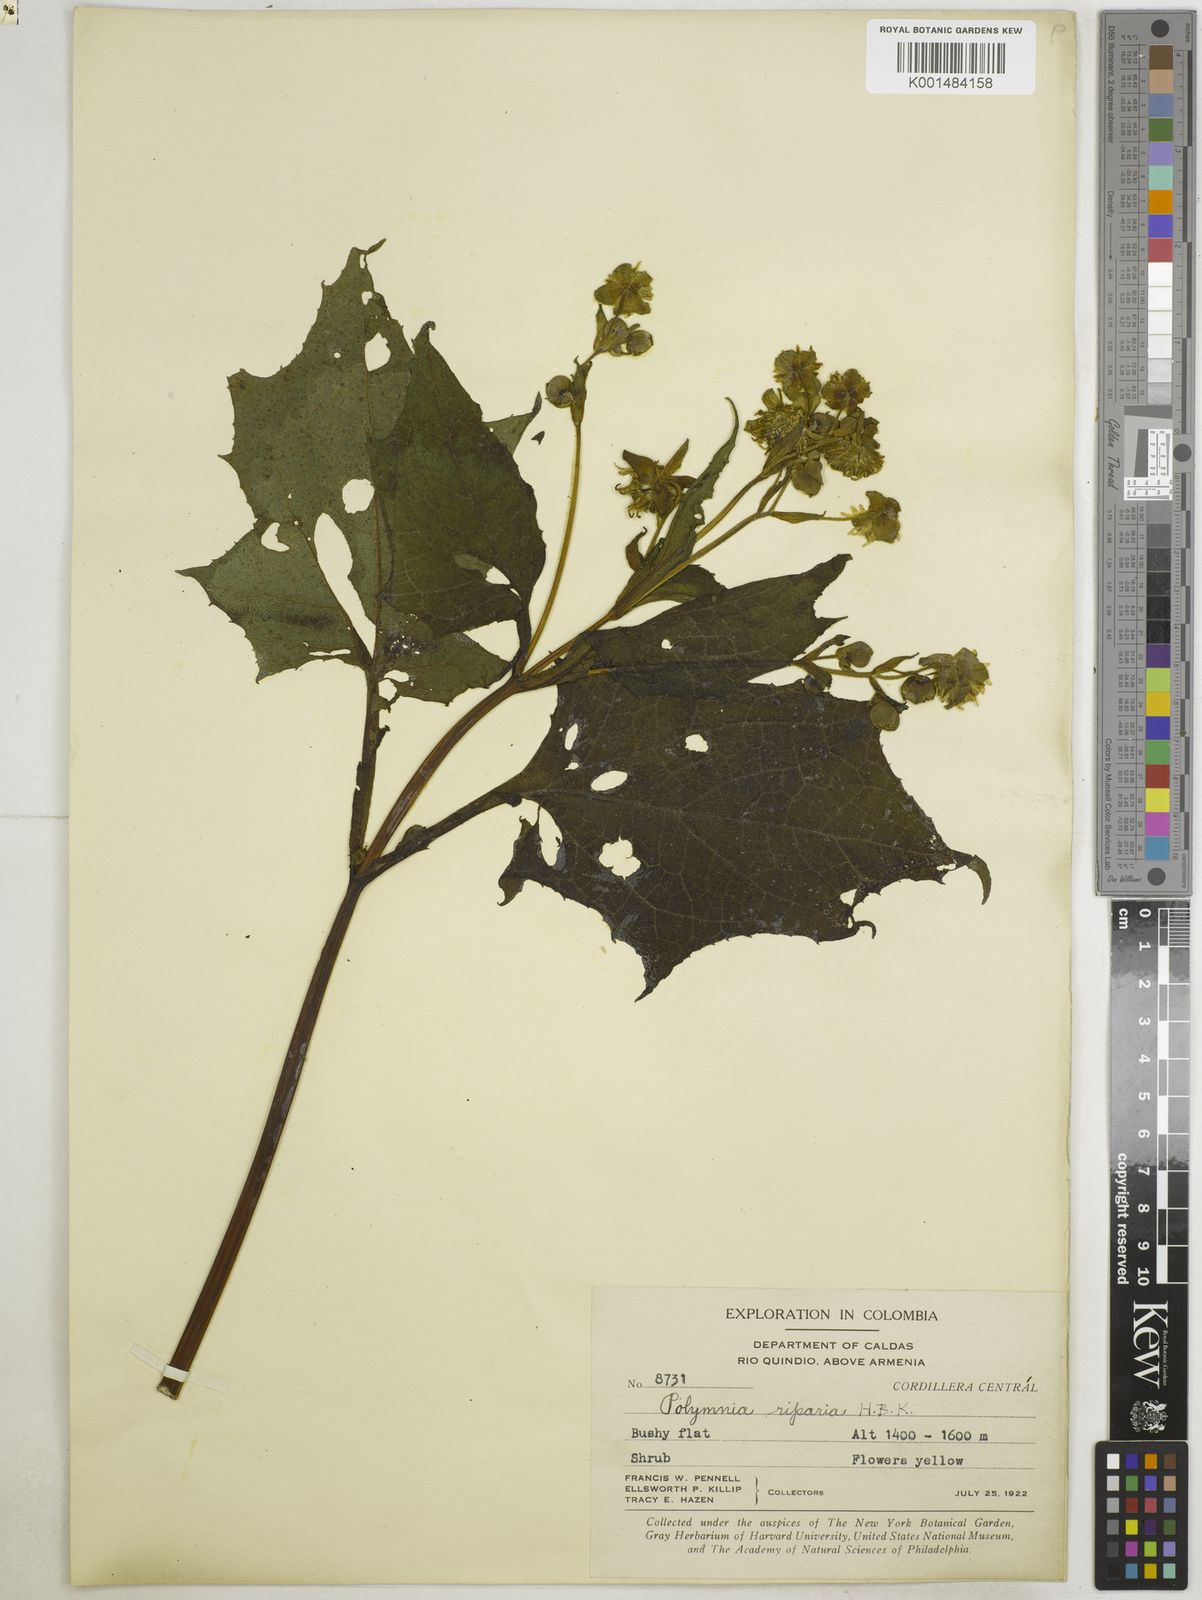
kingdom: Plantae
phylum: Tracheophyta
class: Magnoliopsida
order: Asterales
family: Asteraceae
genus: Smallanthus
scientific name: Smallanthus riparius
